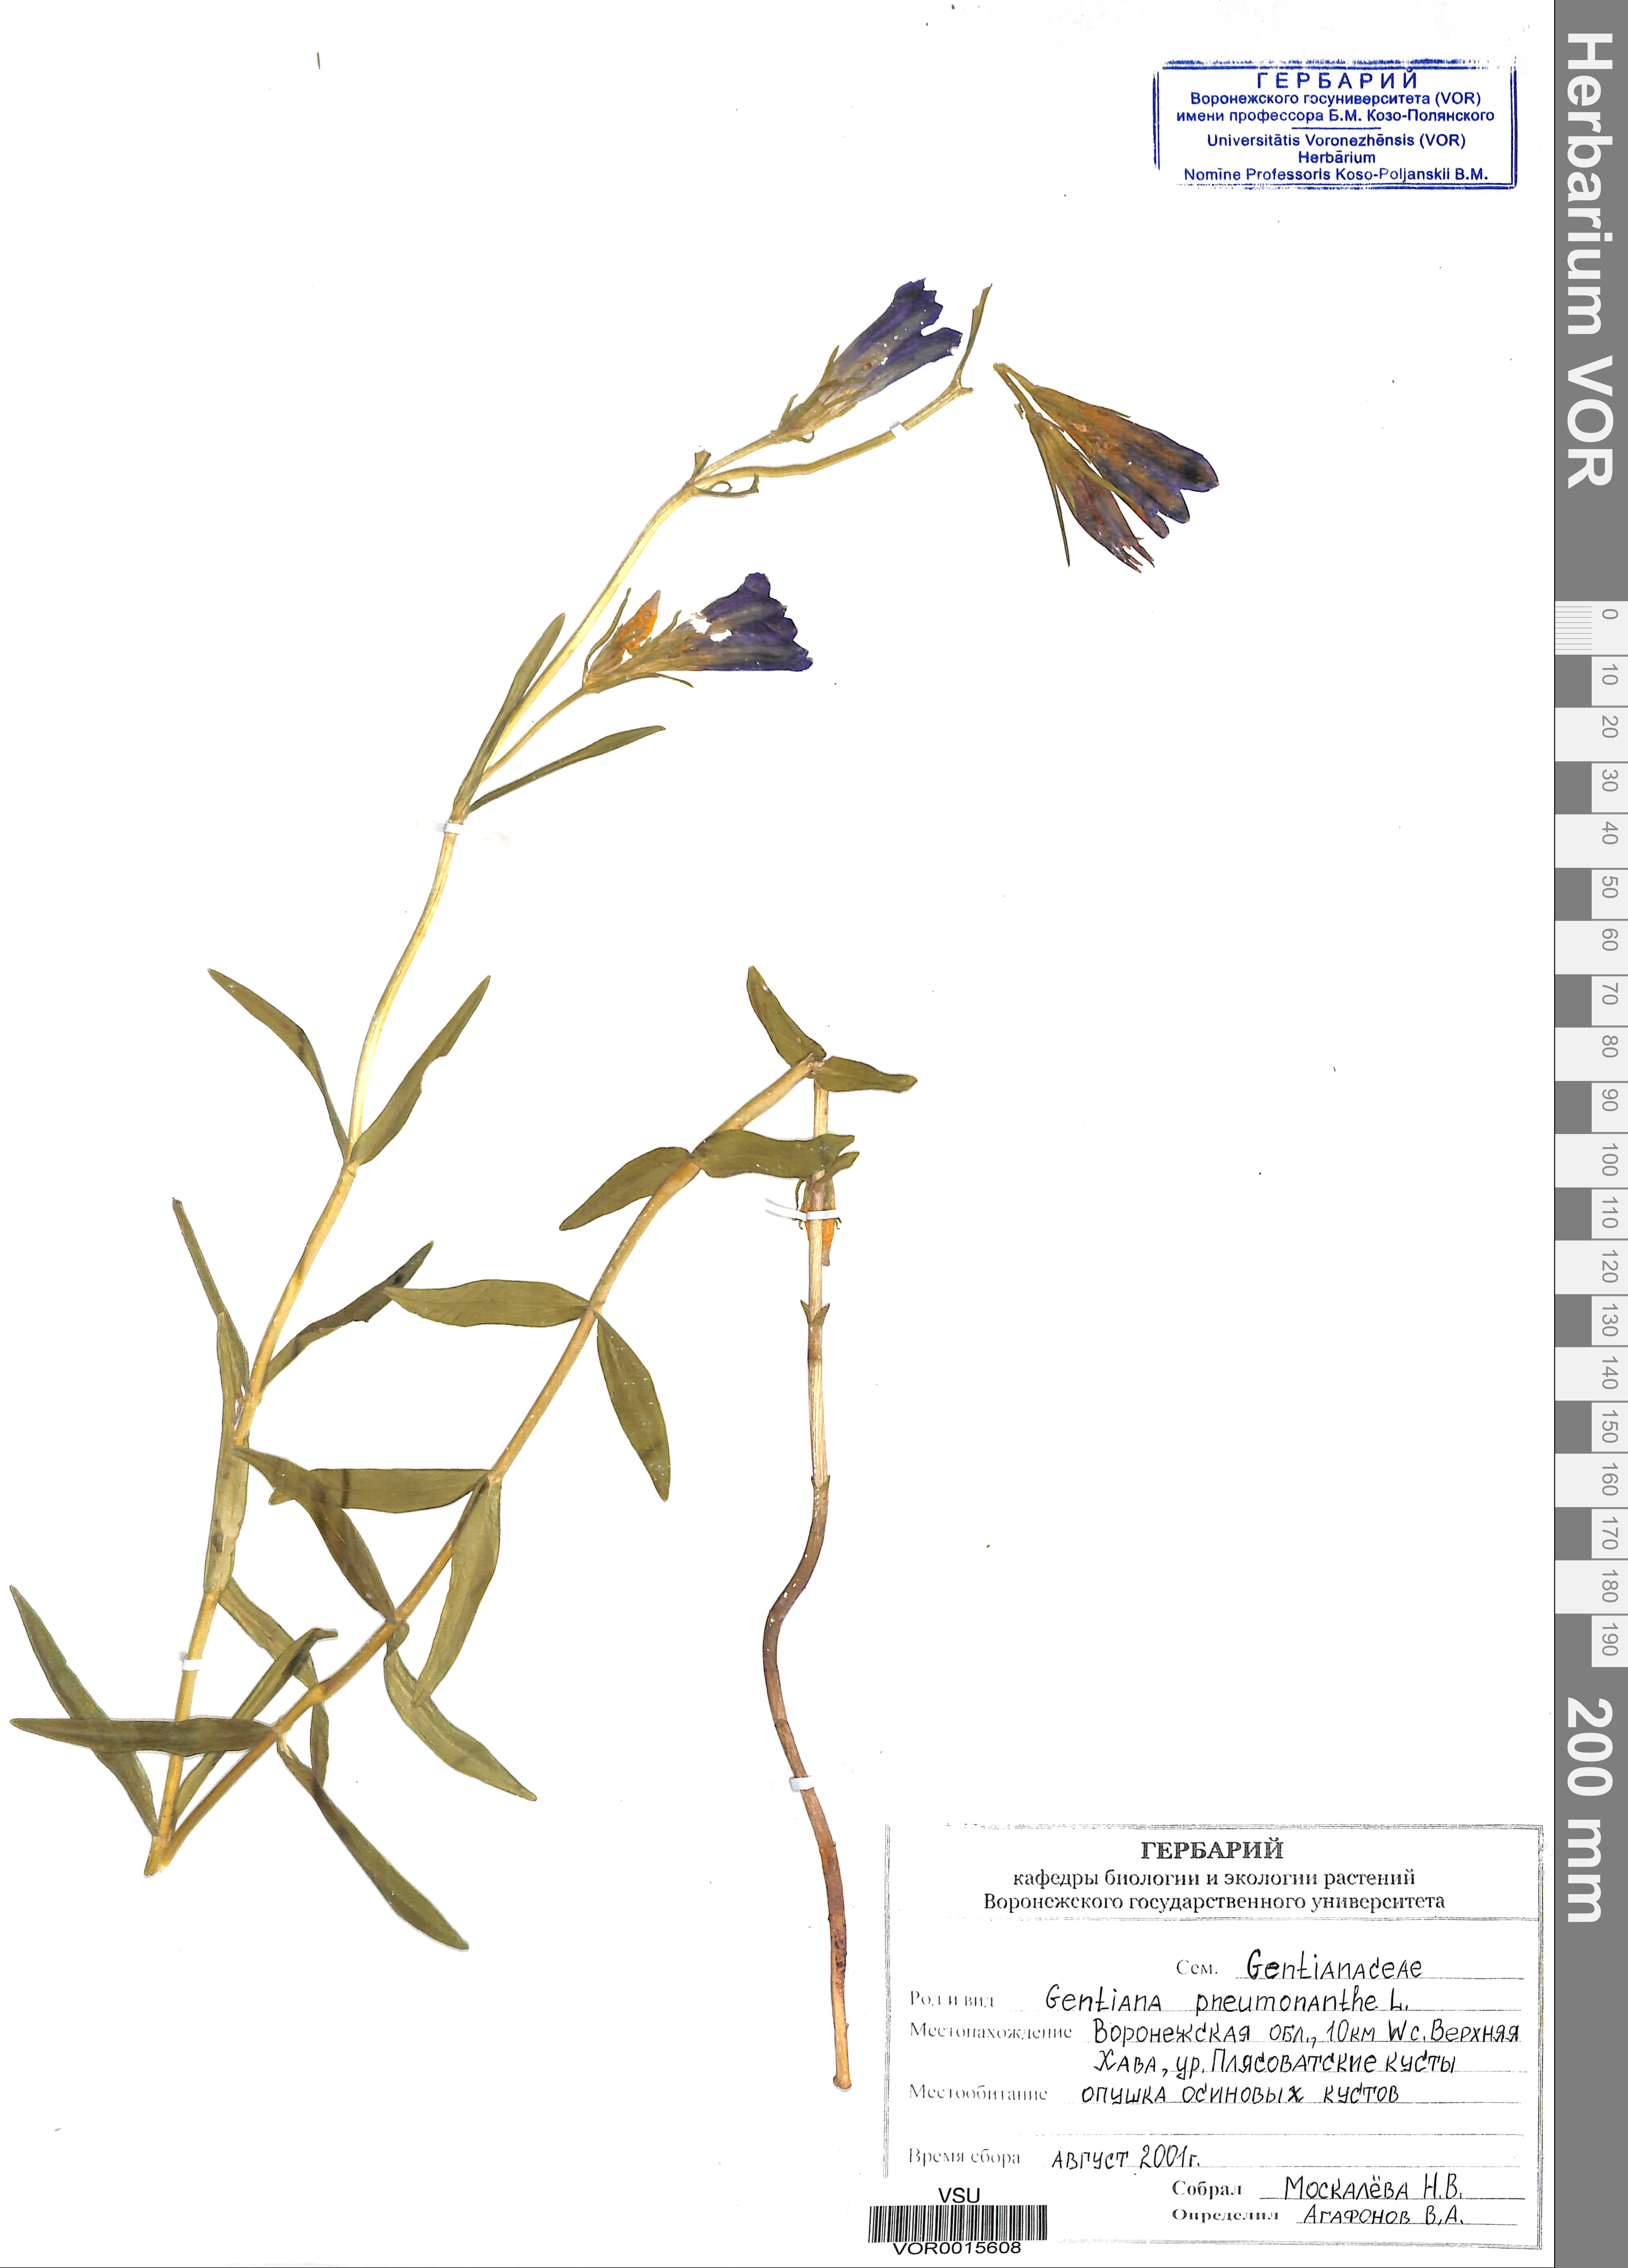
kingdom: Plantae
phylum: Tracheophyta
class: Magnoliopsida
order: Gentianales
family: Gentianaceae
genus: Gentiana
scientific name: Gentiana pneumonanthe
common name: Marsh gentian
